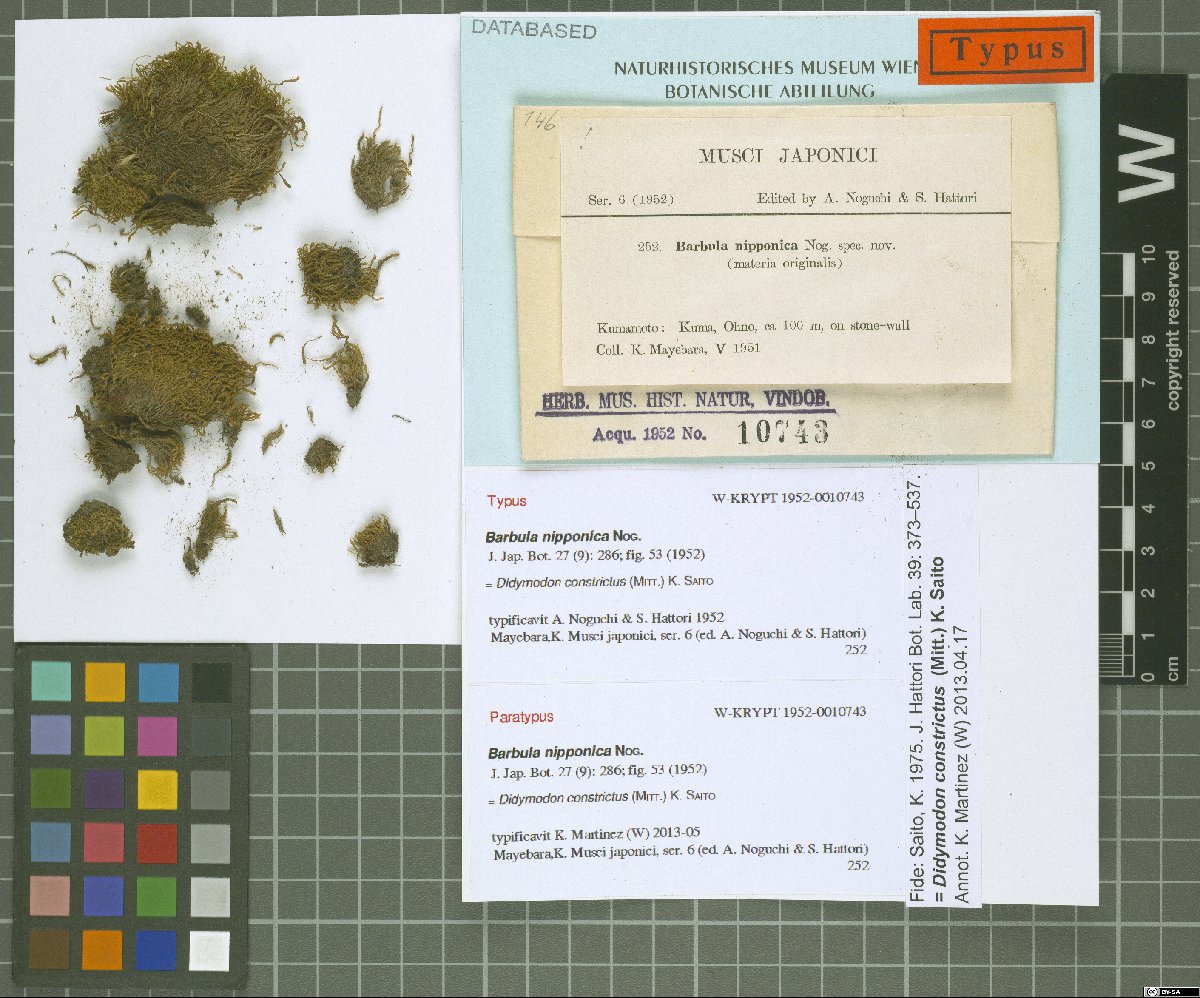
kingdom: Plantae
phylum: Bryophyta
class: Bryopsida
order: Pottiales
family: Pottiaceae
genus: Vinealobryum
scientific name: Vinealobryum vineale
